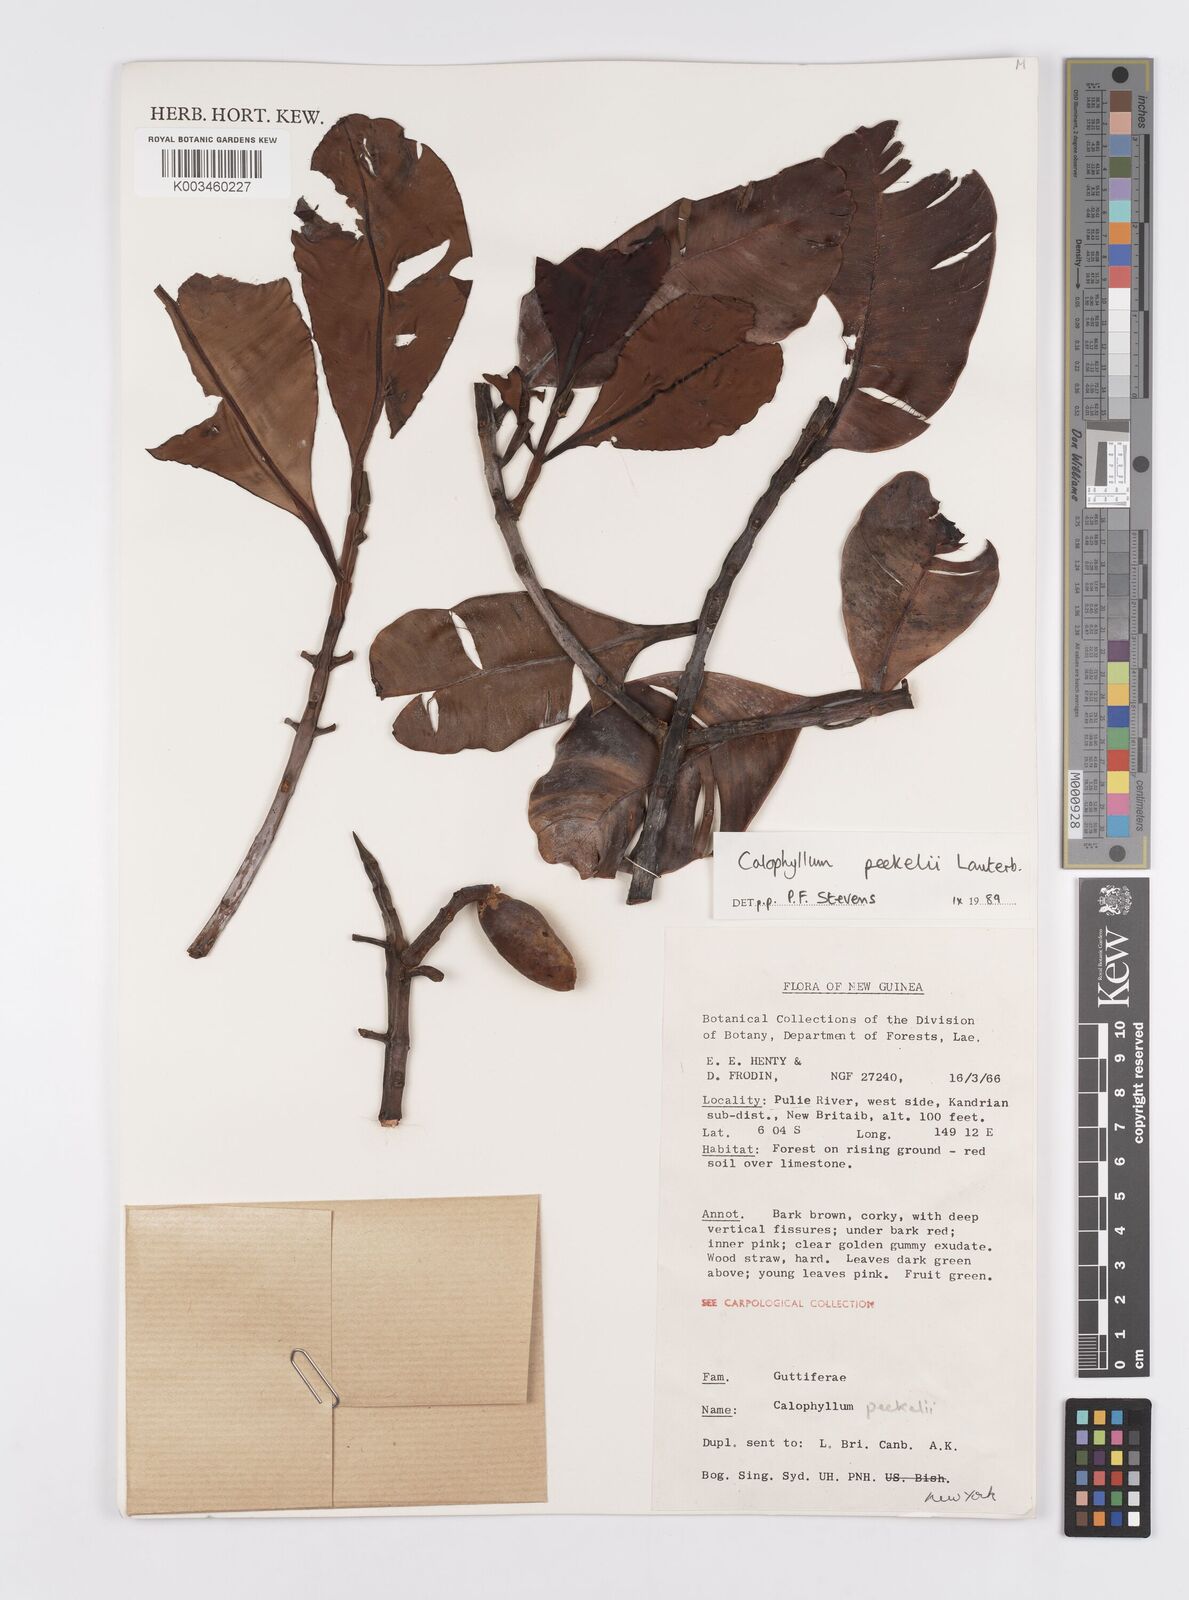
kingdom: Plantae
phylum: Tracheophyta
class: Magnoliopsida
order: Malpighiales
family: Calophyllaceae
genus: Calophyllum
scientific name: Calophyllum peekelii
